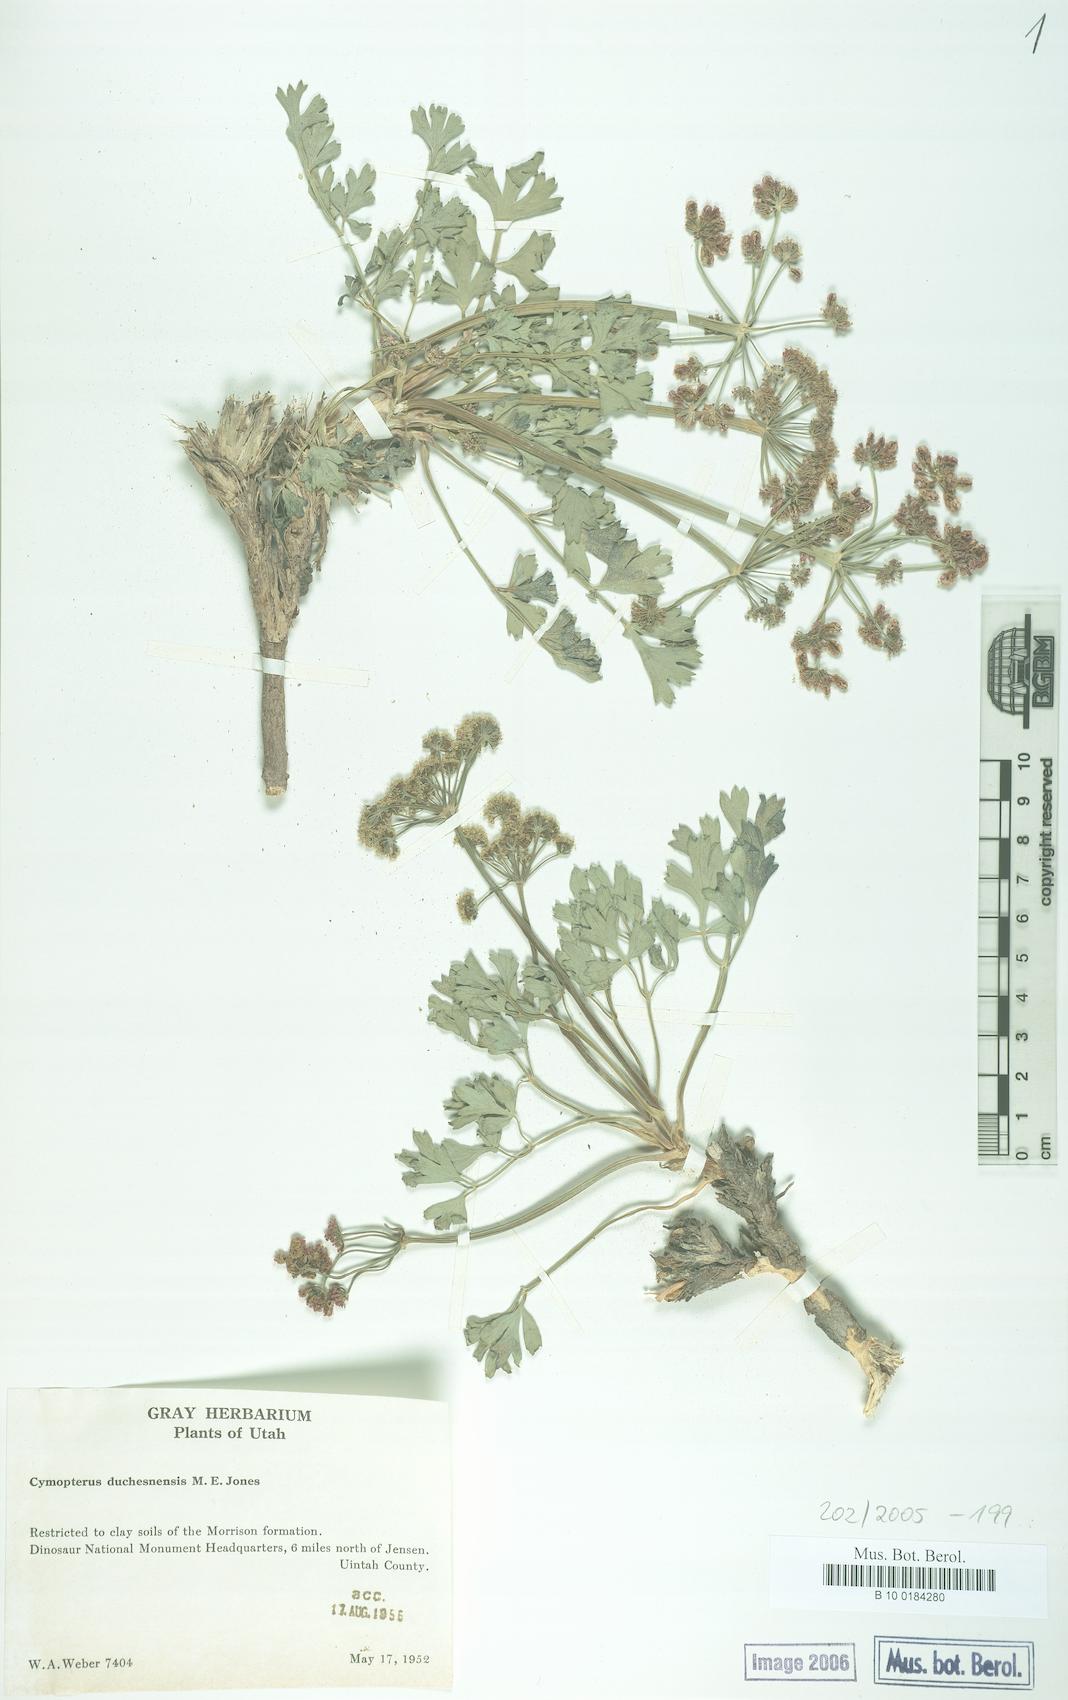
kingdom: Plantae
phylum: Tracheophyta
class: Magnoliopsida
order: Apiales
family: Apiaceae
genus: Aulospermum
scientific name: Aulospermum duchesnense
